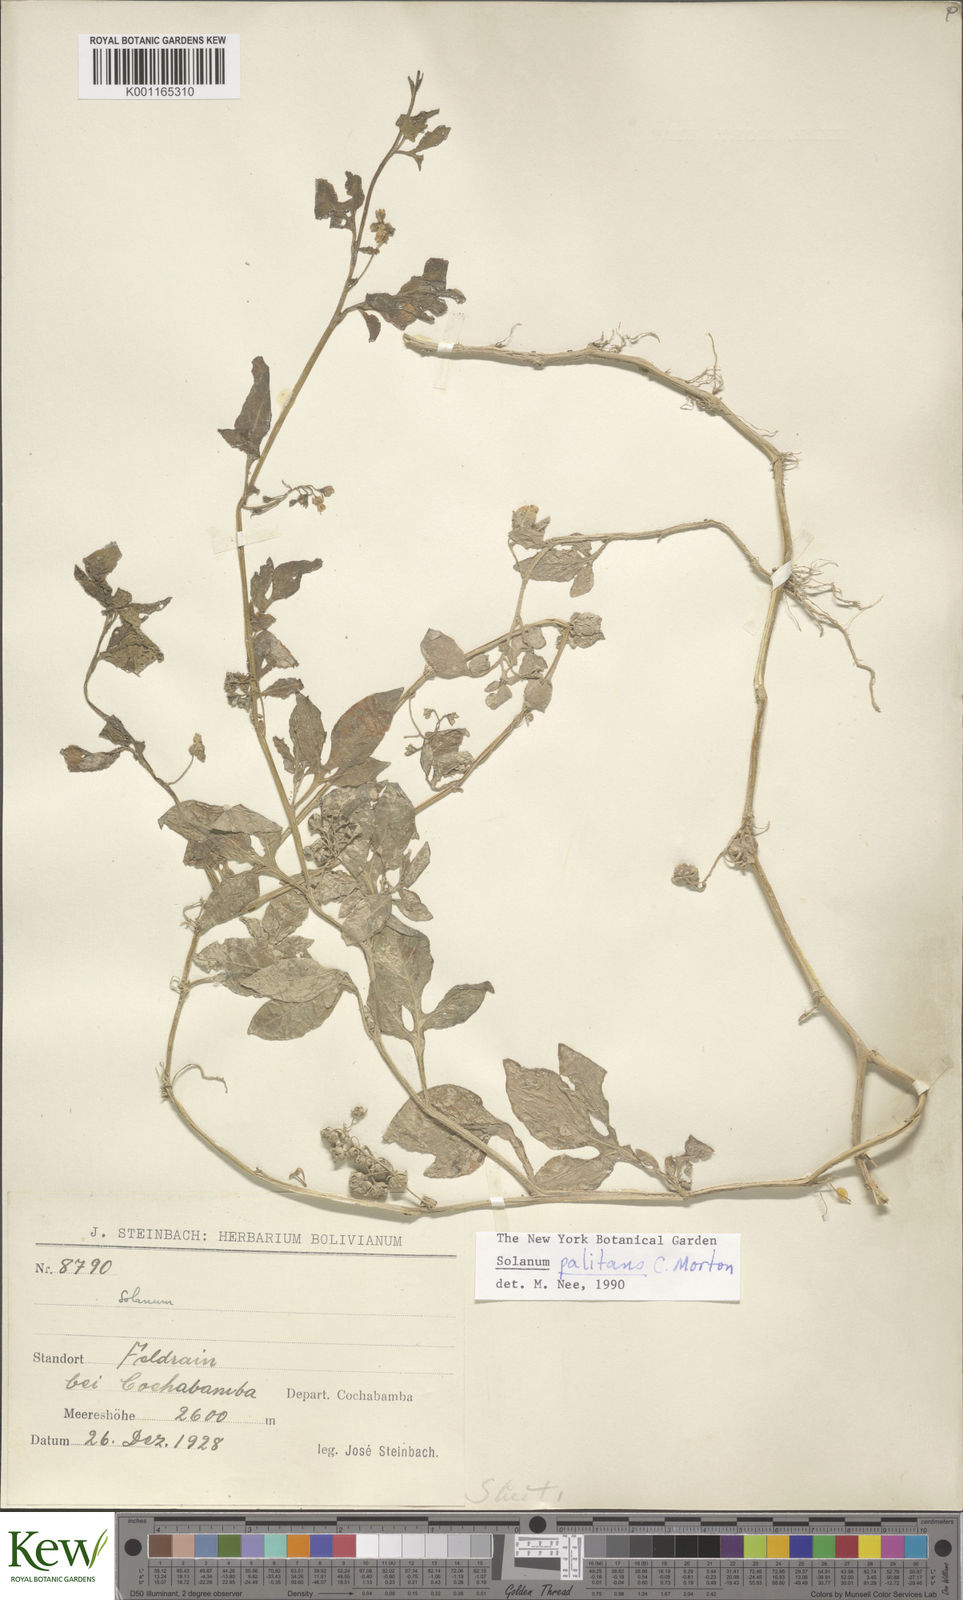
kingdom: Plantae
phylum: Tracheophyta
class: Magnoliopsida
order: Solanales
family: Solanaceae
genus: Solanum
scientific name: Solanum palitans
